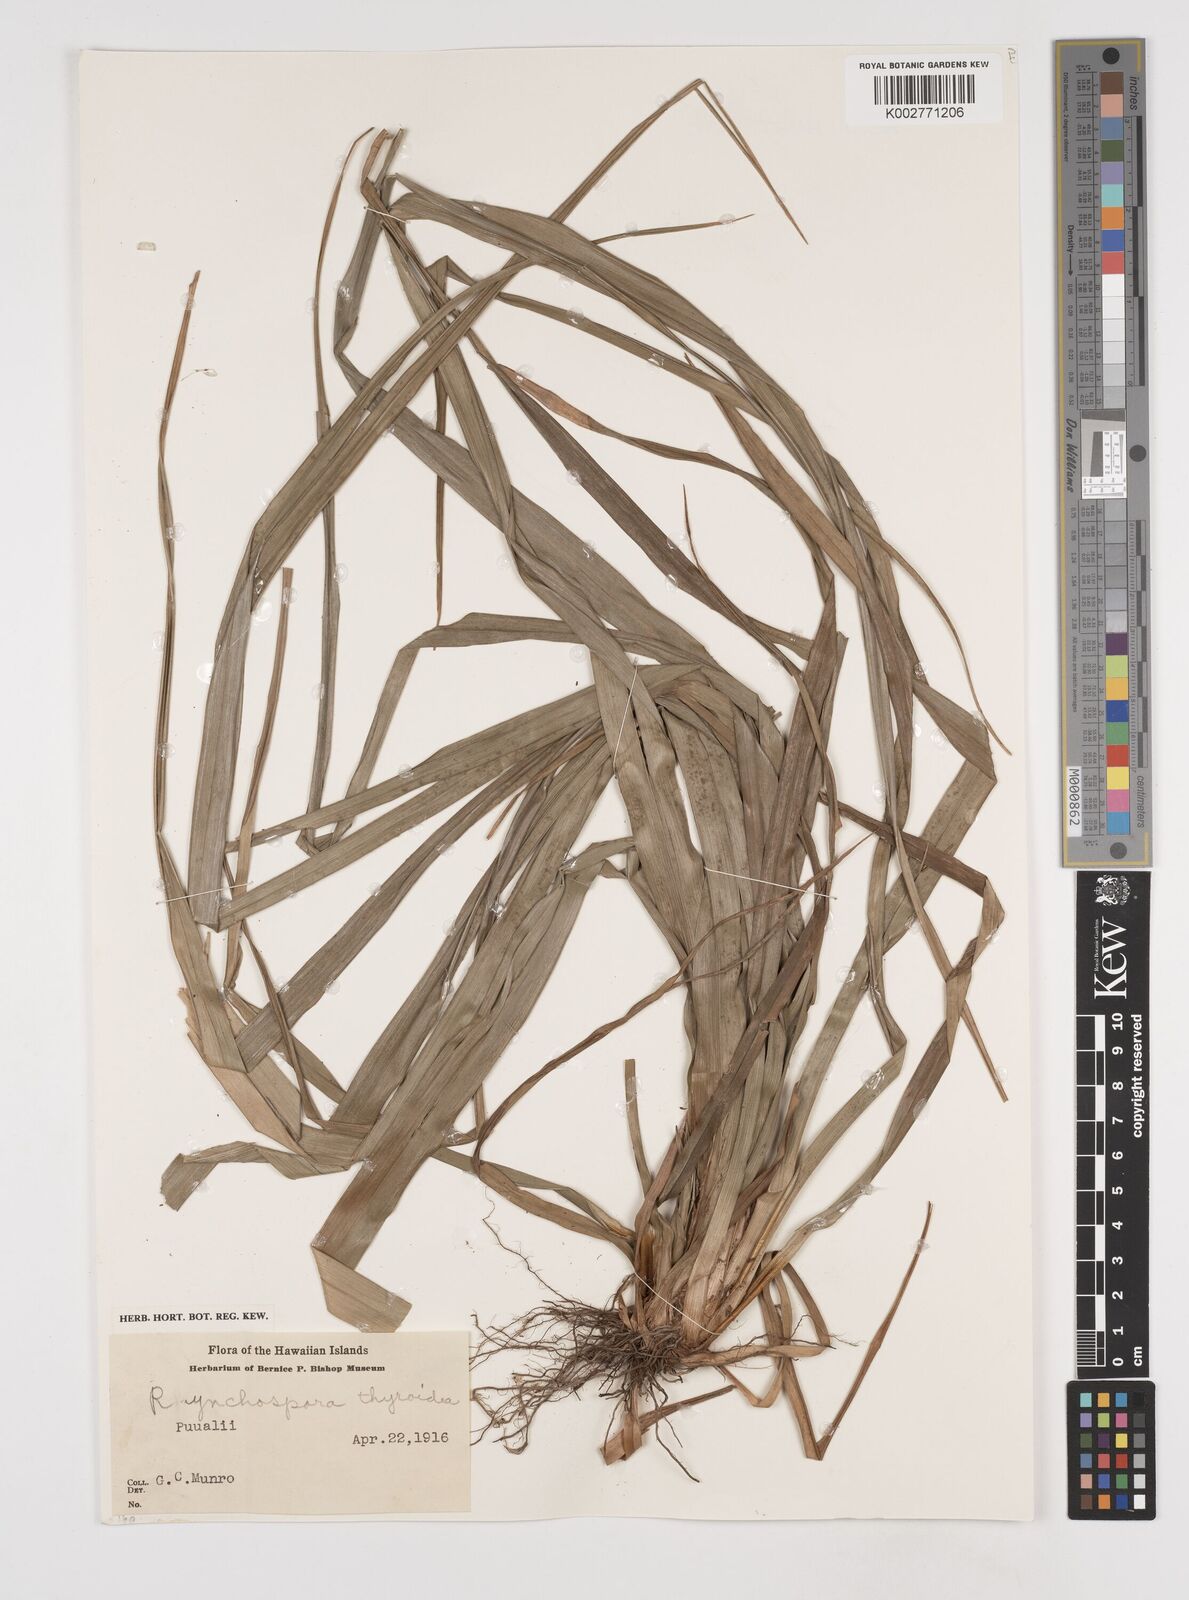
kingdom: Plantae
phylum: Tracheophyta
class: Liliopsida
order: Poales
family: Cyperaceae
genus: Rhynchospora
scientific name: Rhynchospora sclerioides
